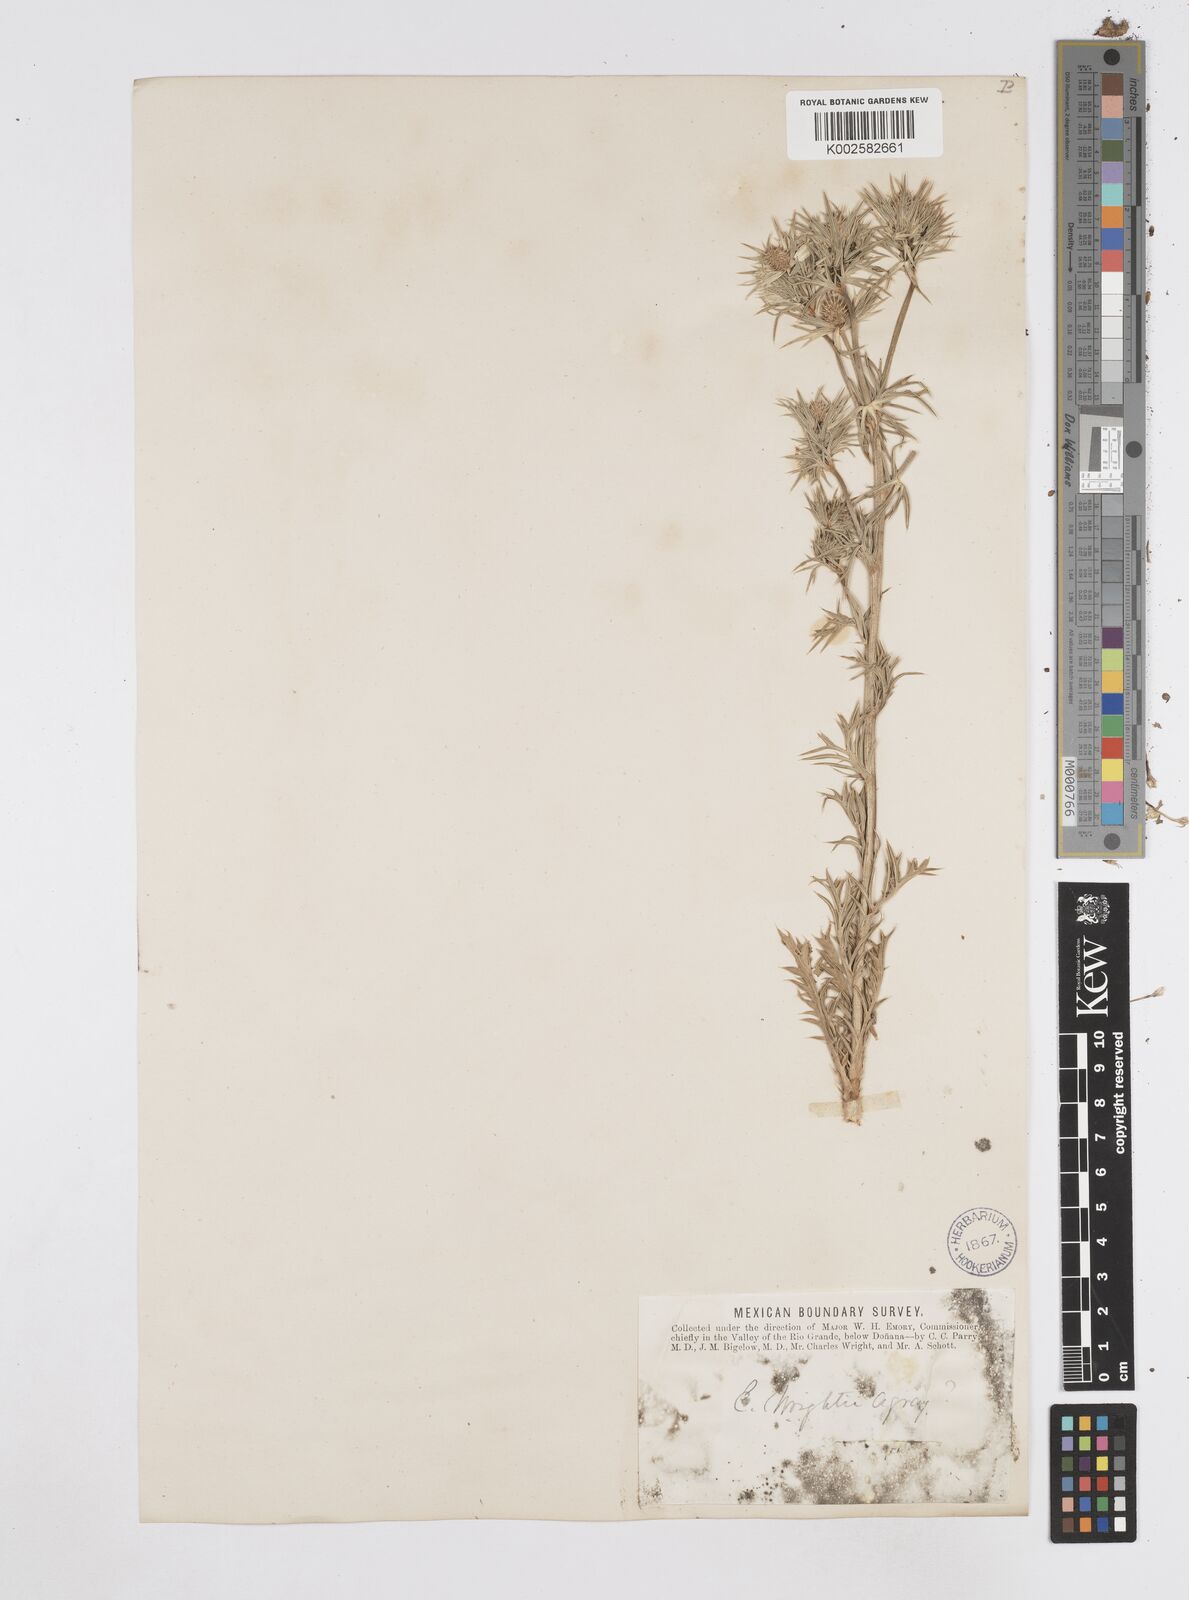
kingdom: Plantae
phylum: Tracheophyta
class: Magnoliopsida
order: Apiales
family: Apiaceae
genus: Eryngium
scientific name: Eryngium heterophyllum
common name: Mexican thistle
